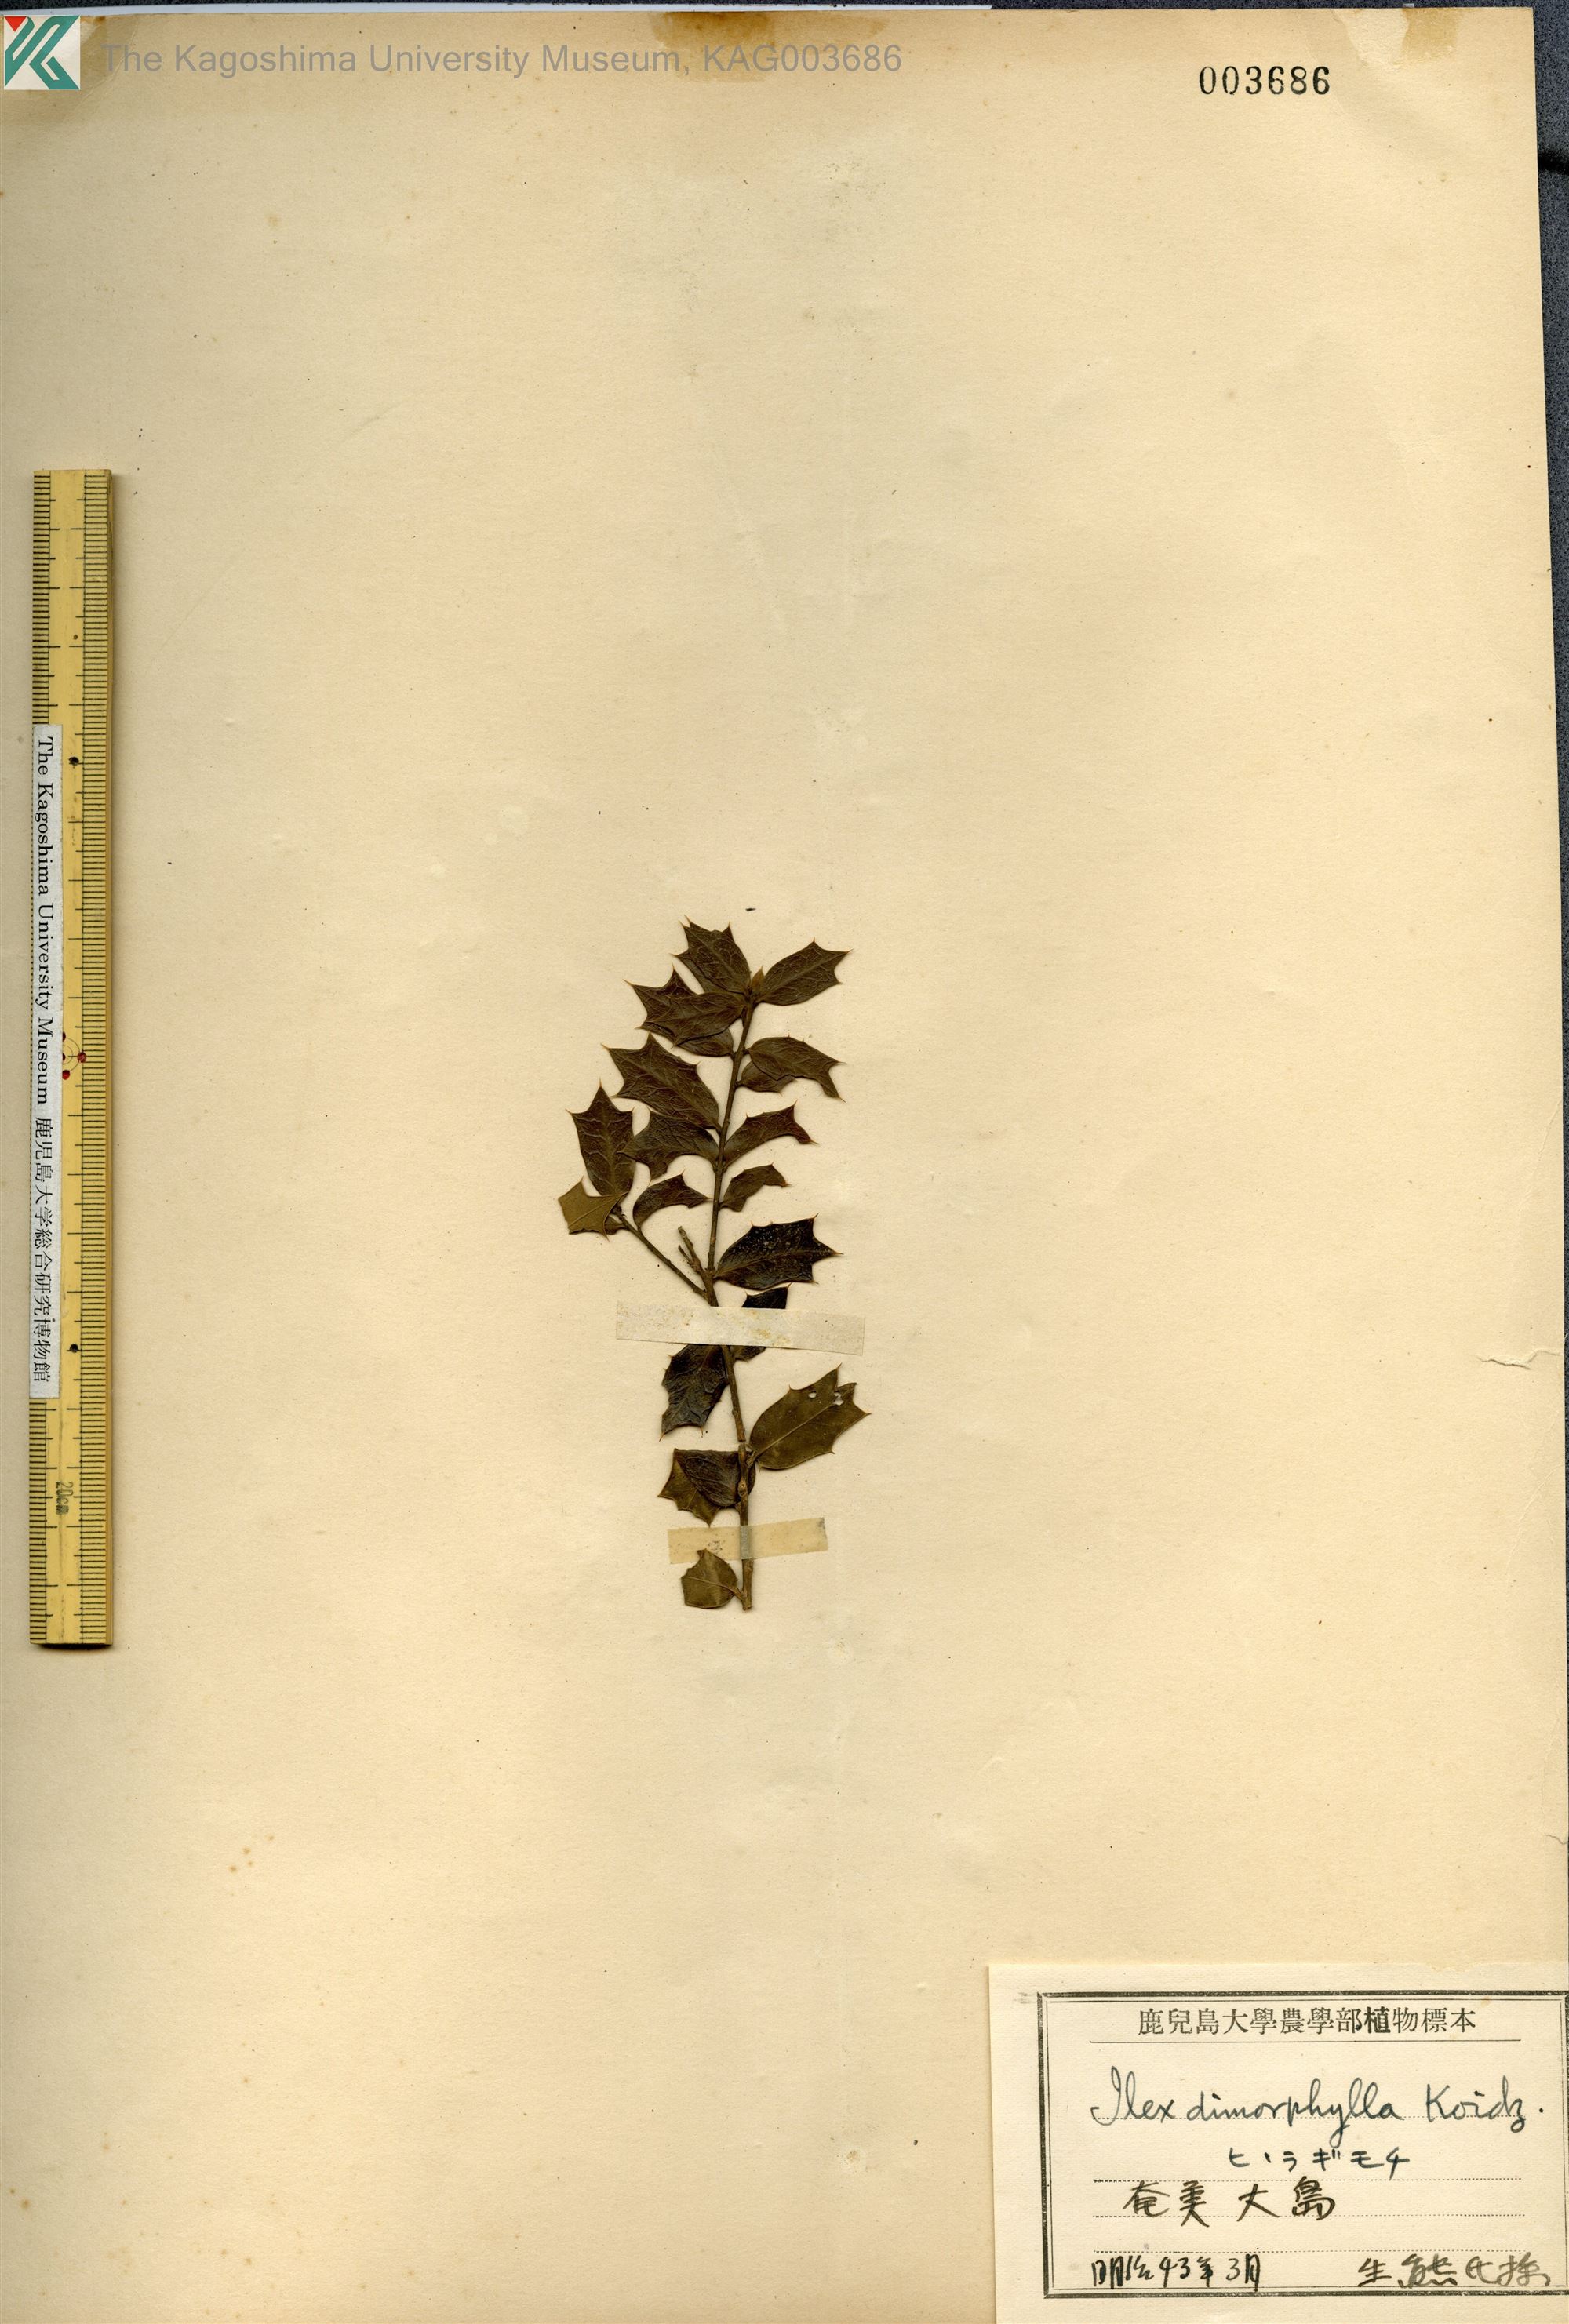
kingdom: Plantae
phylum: Tracheophyta
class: Magnoliopsida
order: Aquifoliales
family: Aquifoliaceae
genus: Ilex
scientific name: Ilex
